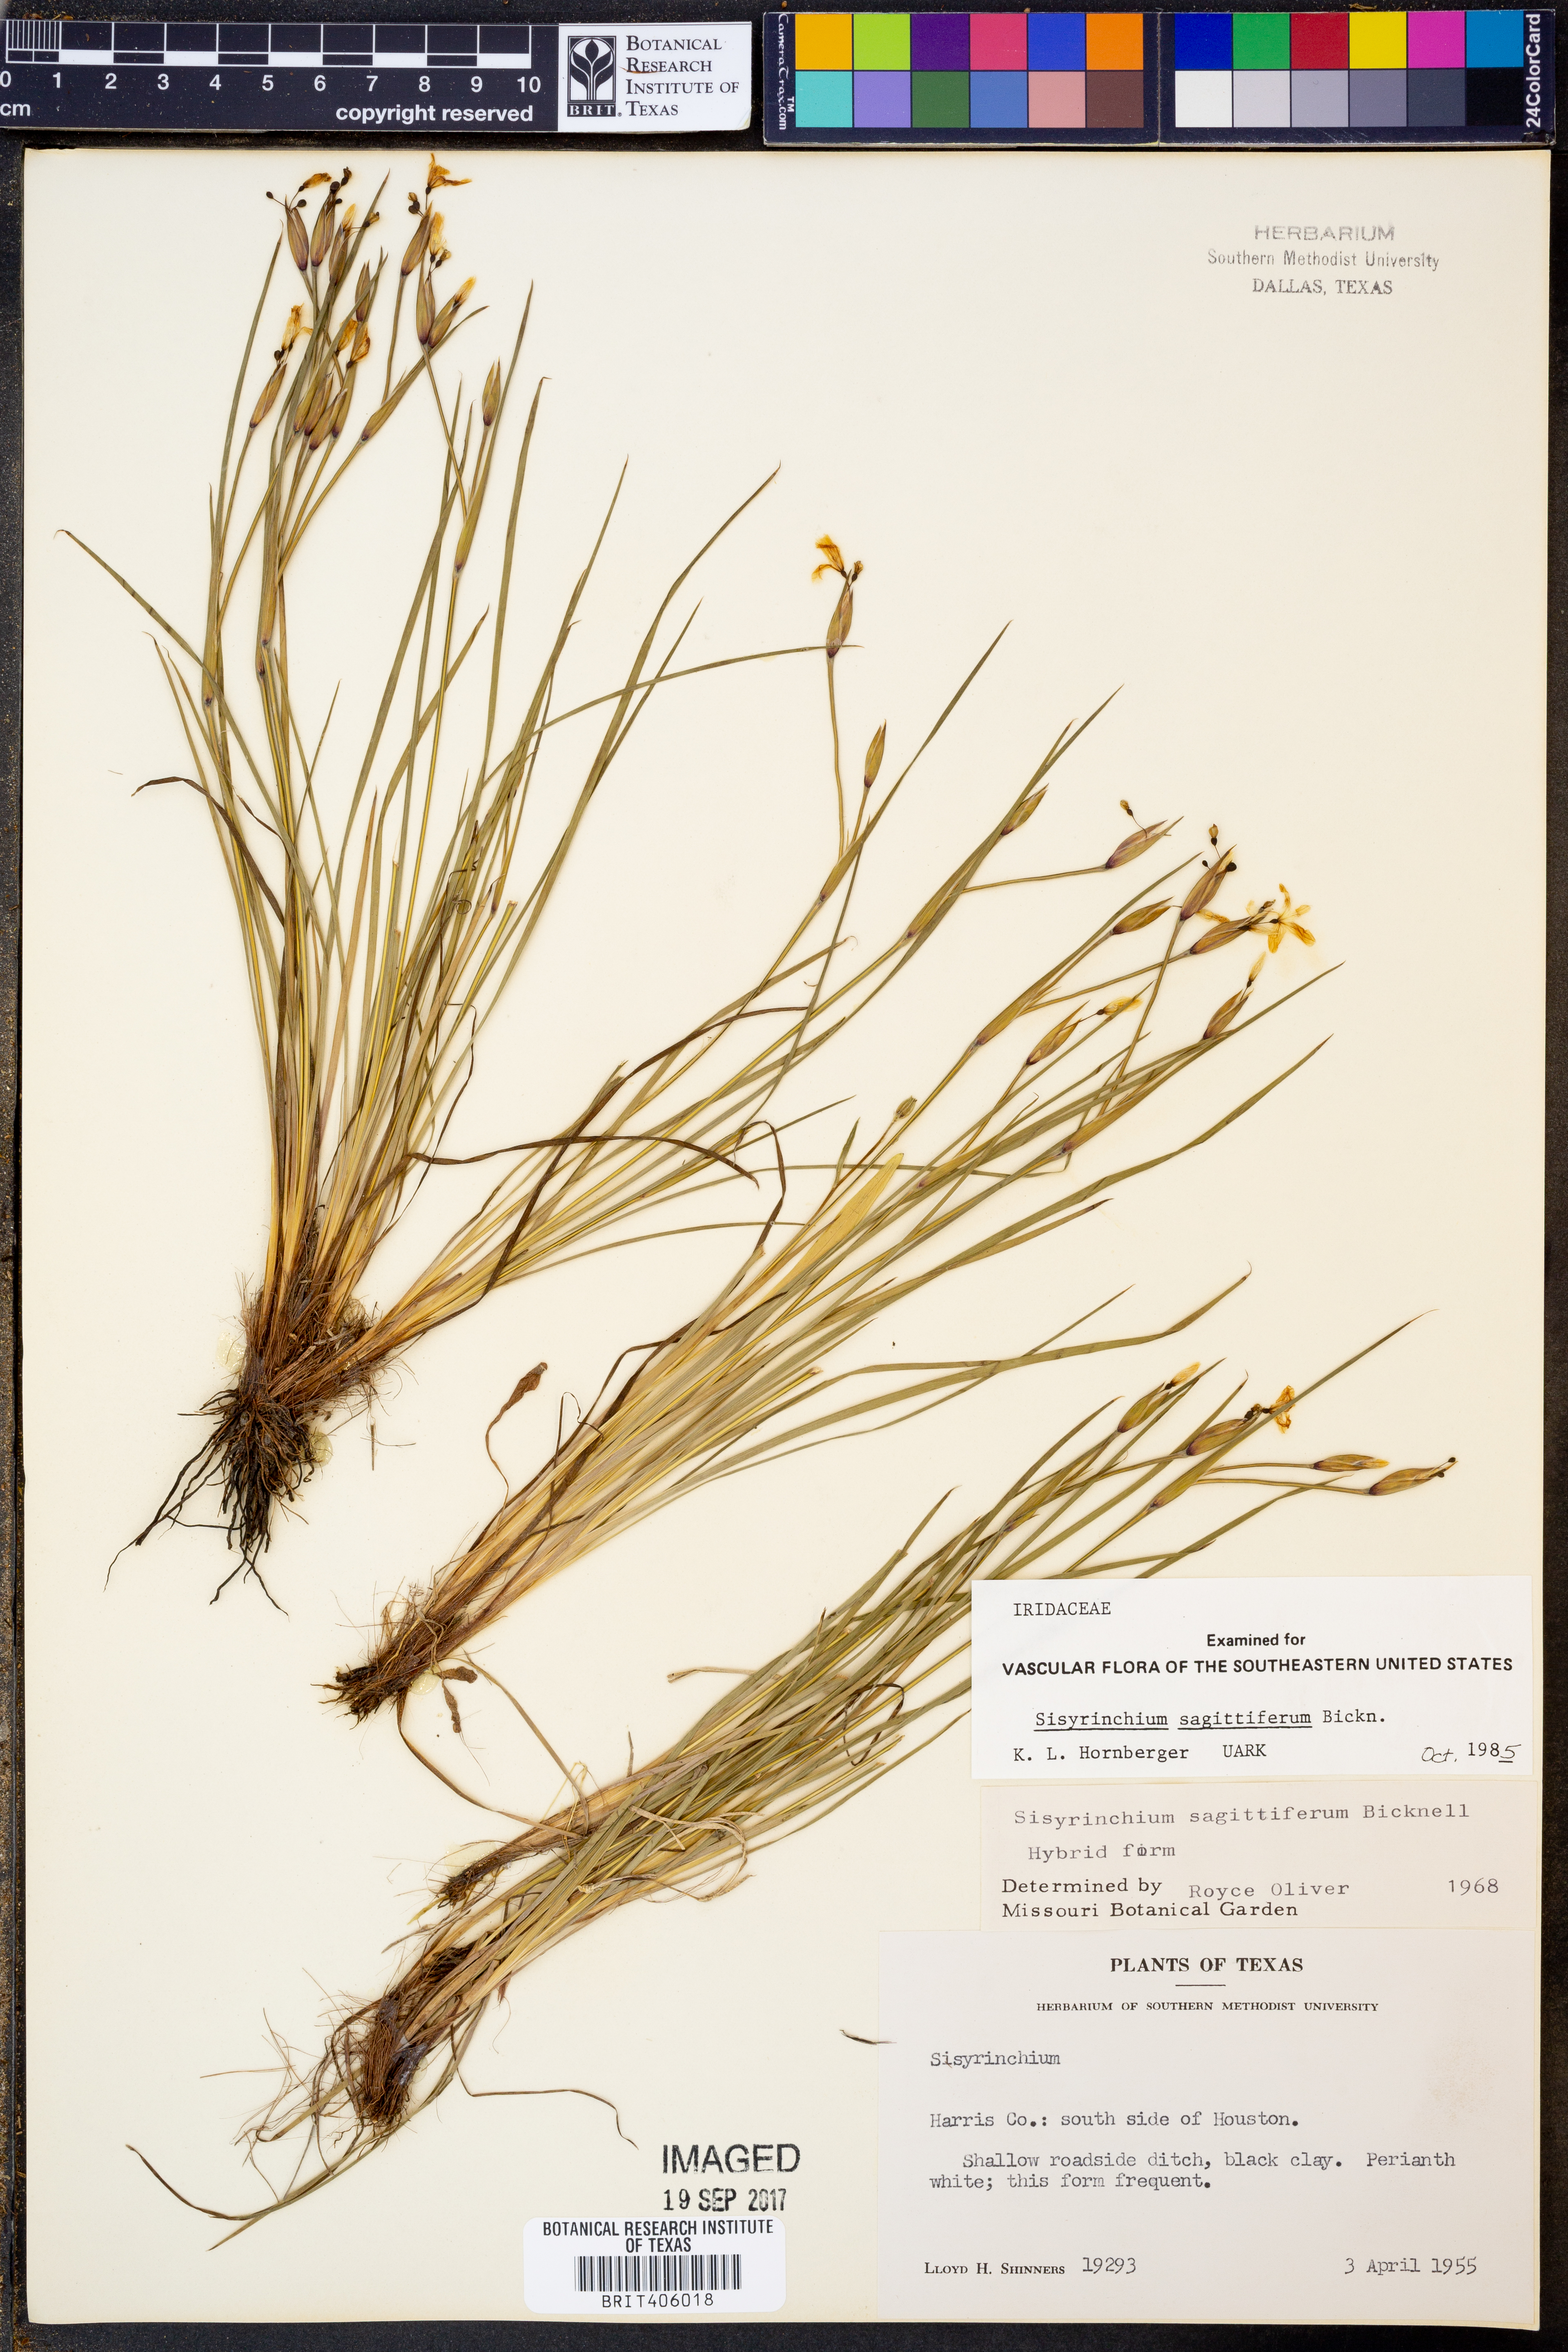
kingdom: Plantae
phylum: Tracheophyta
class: Liliopsida
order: Asparagales
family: Iridaceae
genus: Sisyrinchium
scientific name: Sisyrinchium sagittiferum
